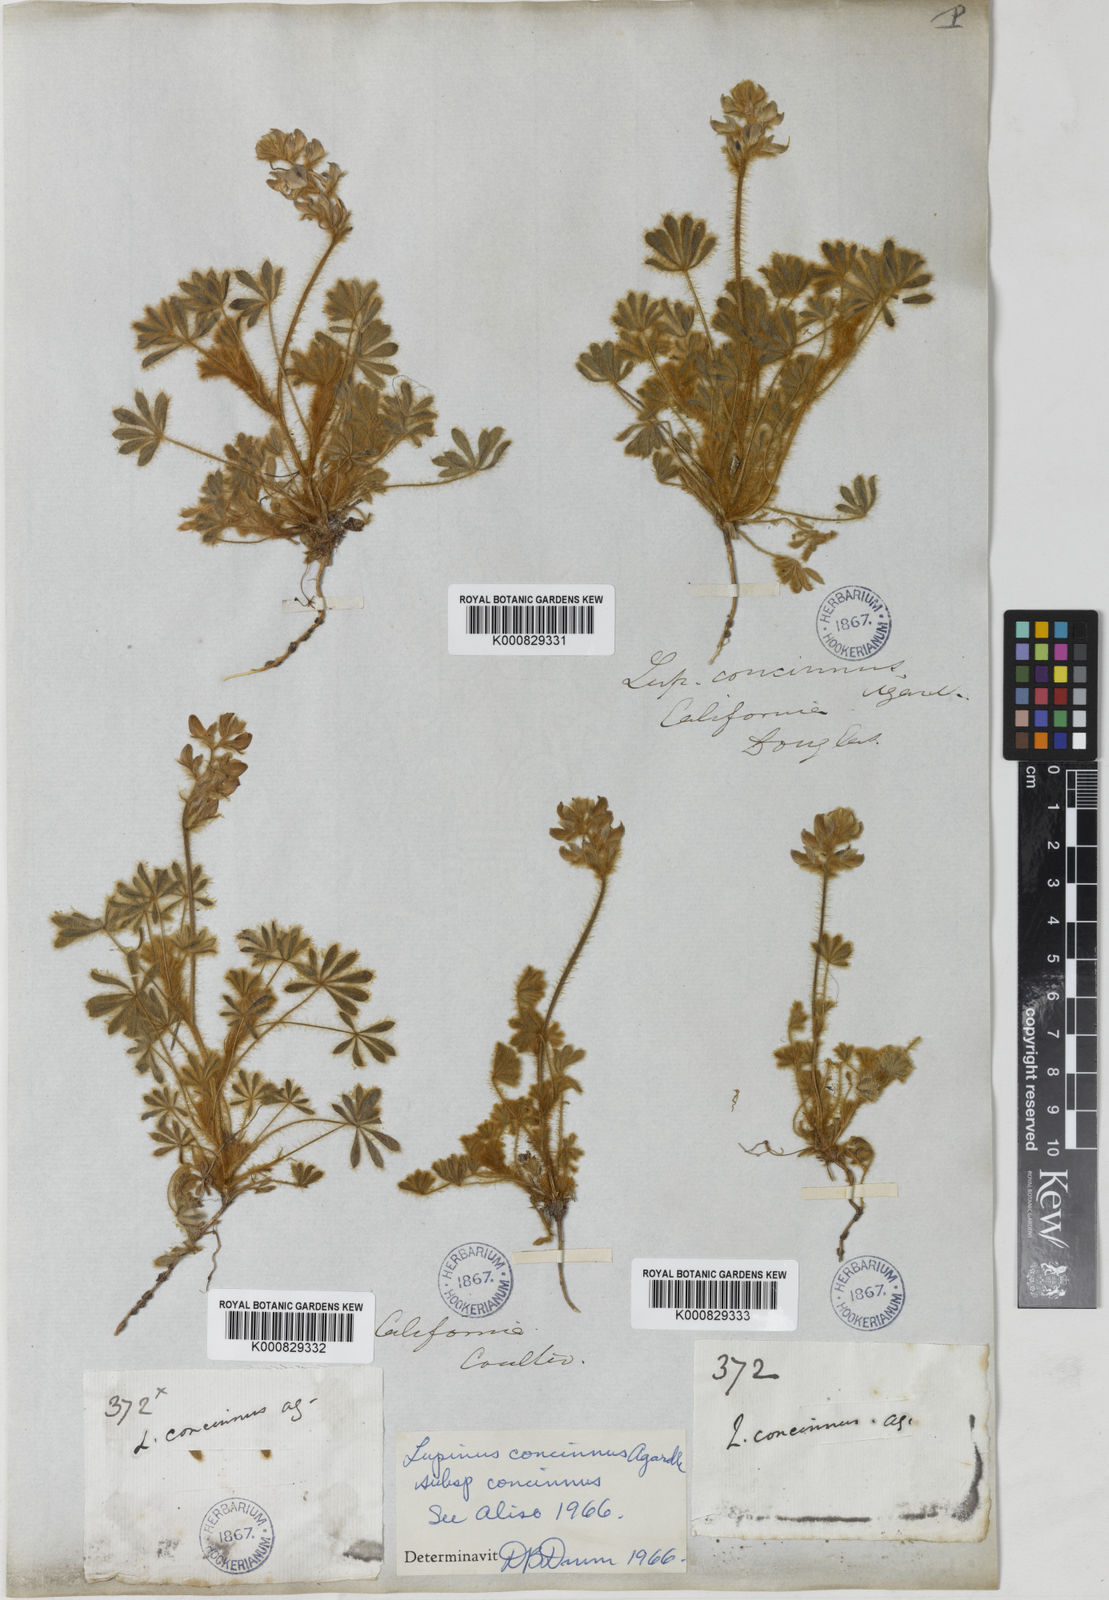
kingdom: Plantae
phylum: Tracheophyta
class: Magnoliopsida
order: Fabales
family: Fabaceae
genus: Lupinus
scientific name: Lupinus concinnus
